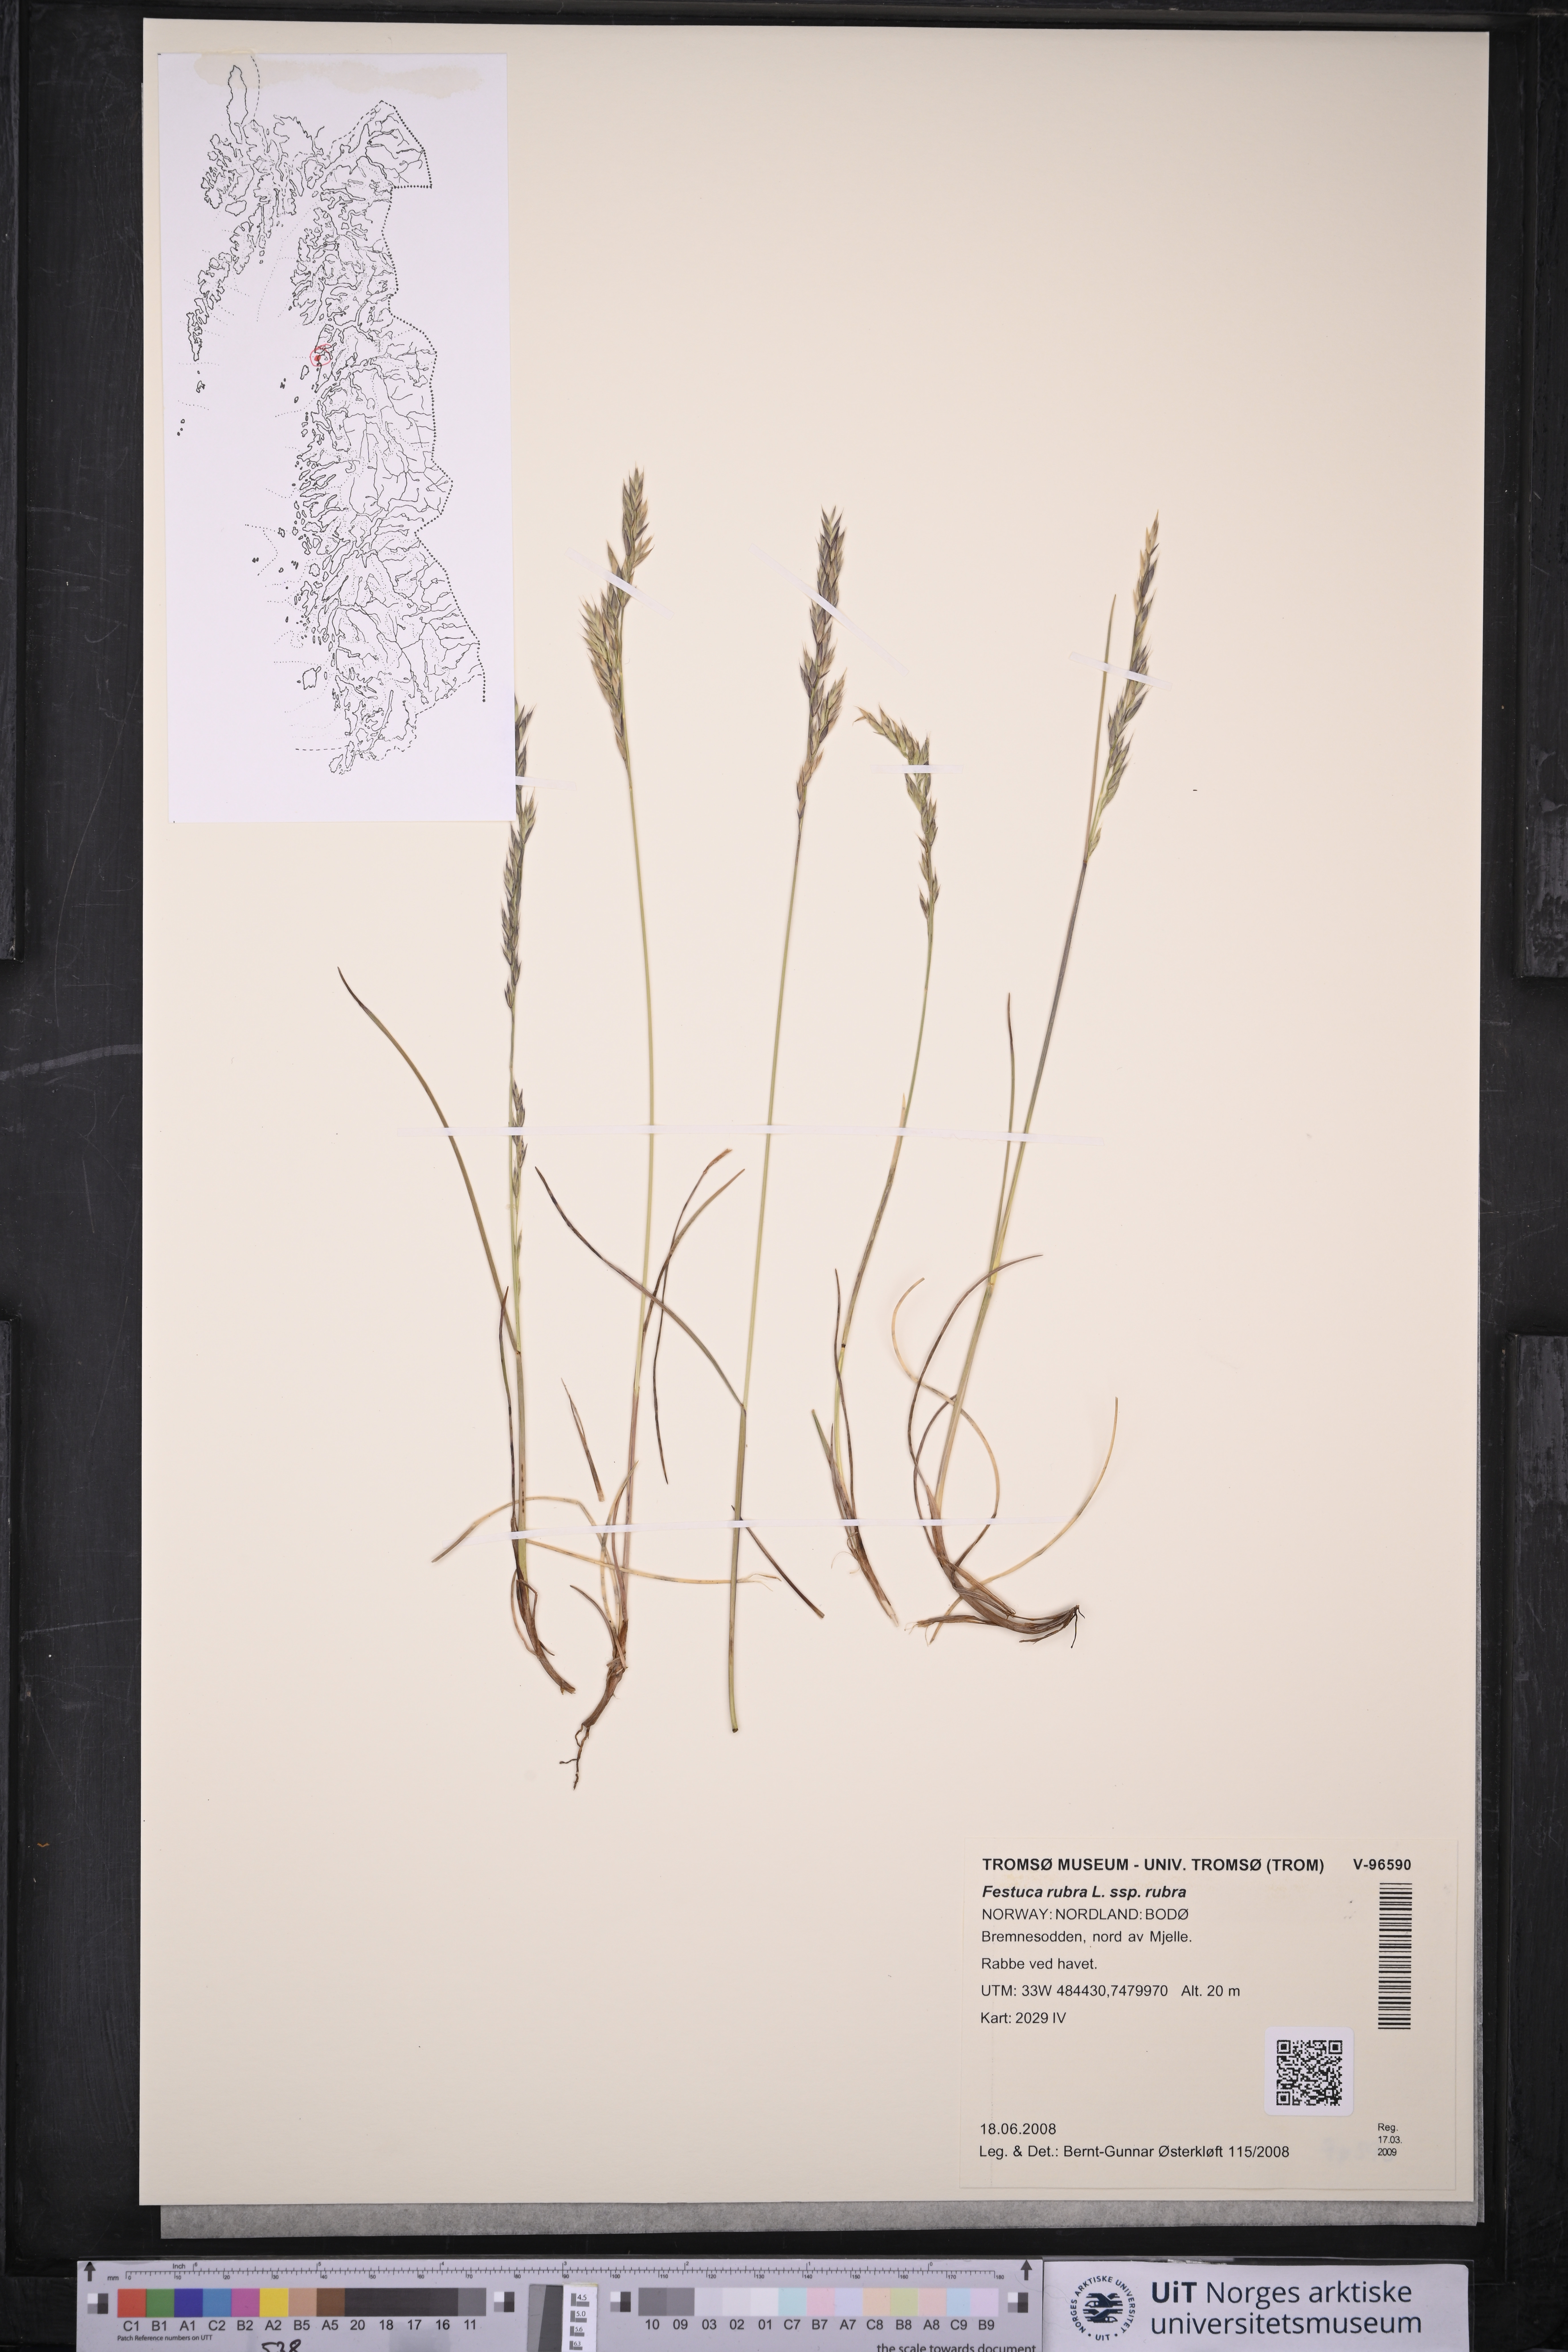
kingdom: Plantae
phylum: Tracheophyta
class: Liliopsida
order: Poales
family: Poaceae
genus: Festuca
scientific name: Festuca rubra
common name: Red fescue
